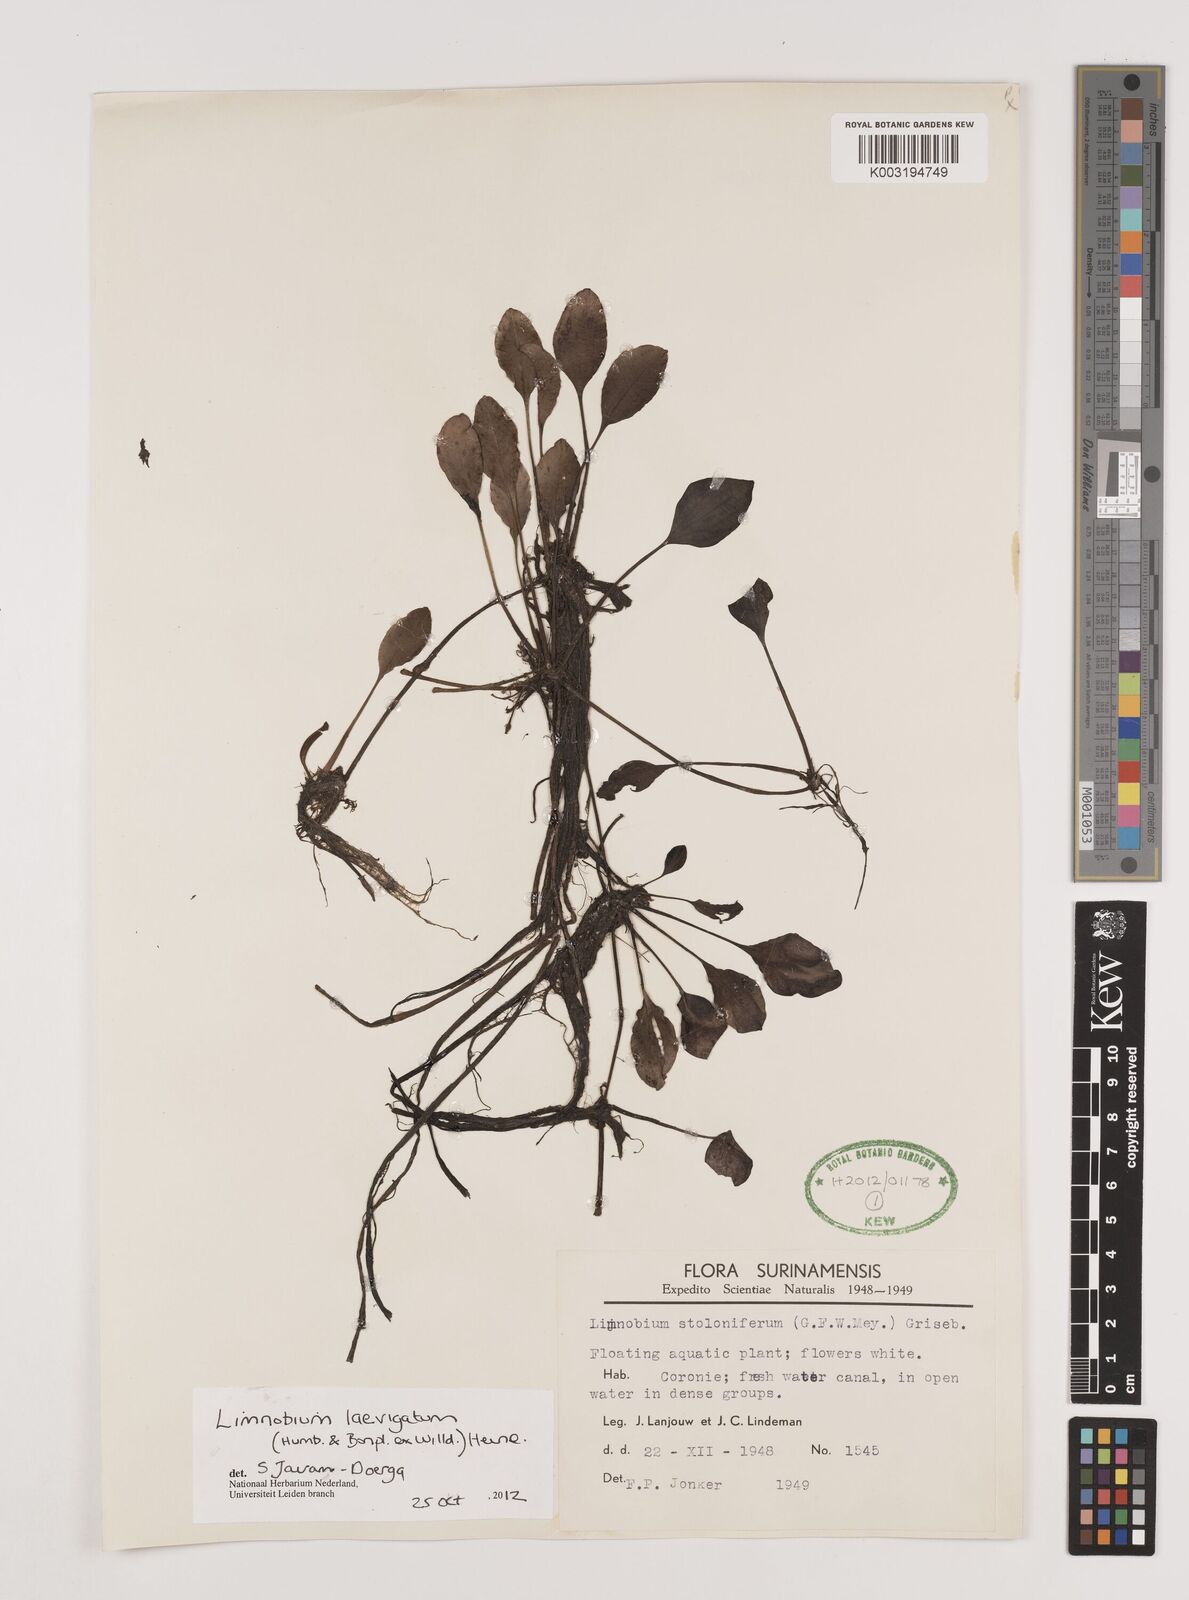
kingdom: Plantae
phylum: Tracheophyta
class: Liliopsida
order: Alismatales
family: Hydrocharitaceae
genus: Hydrocharis
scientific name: Hydrocharis laevigata
